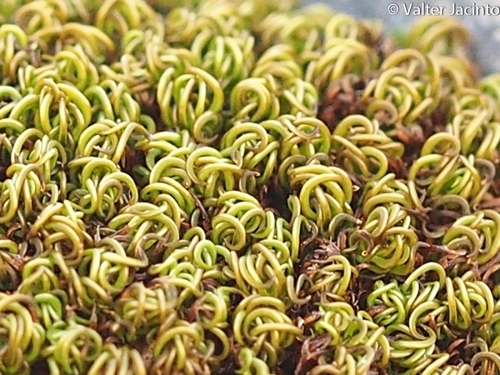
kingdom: Plantae
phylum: Bryophyta
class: Bryopsida
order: Pottiales
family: Pottiaceae
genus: Tortella
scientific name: Tortella
